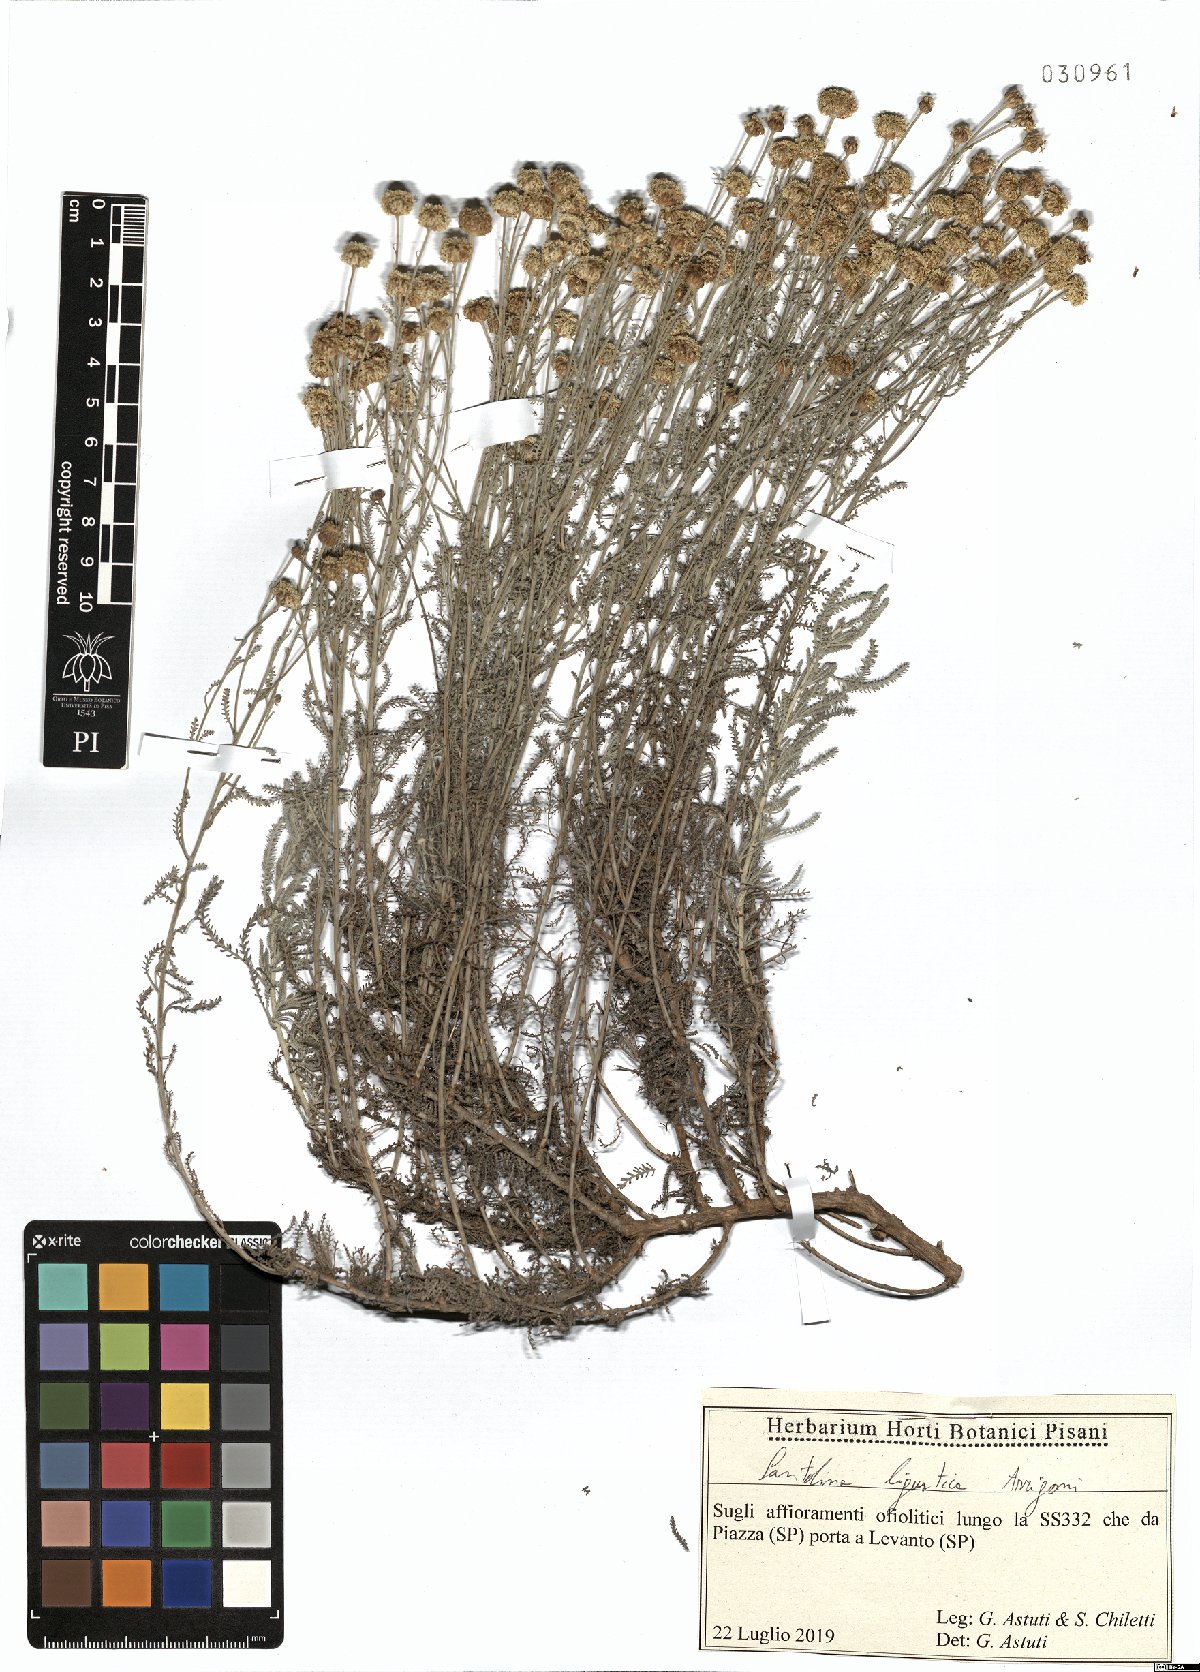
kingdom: Plantae
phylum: Tracheophyta
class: Magnoliopsida
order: Asterales
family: Asteraceae
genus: Santolina
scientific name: Santolina ligustica
